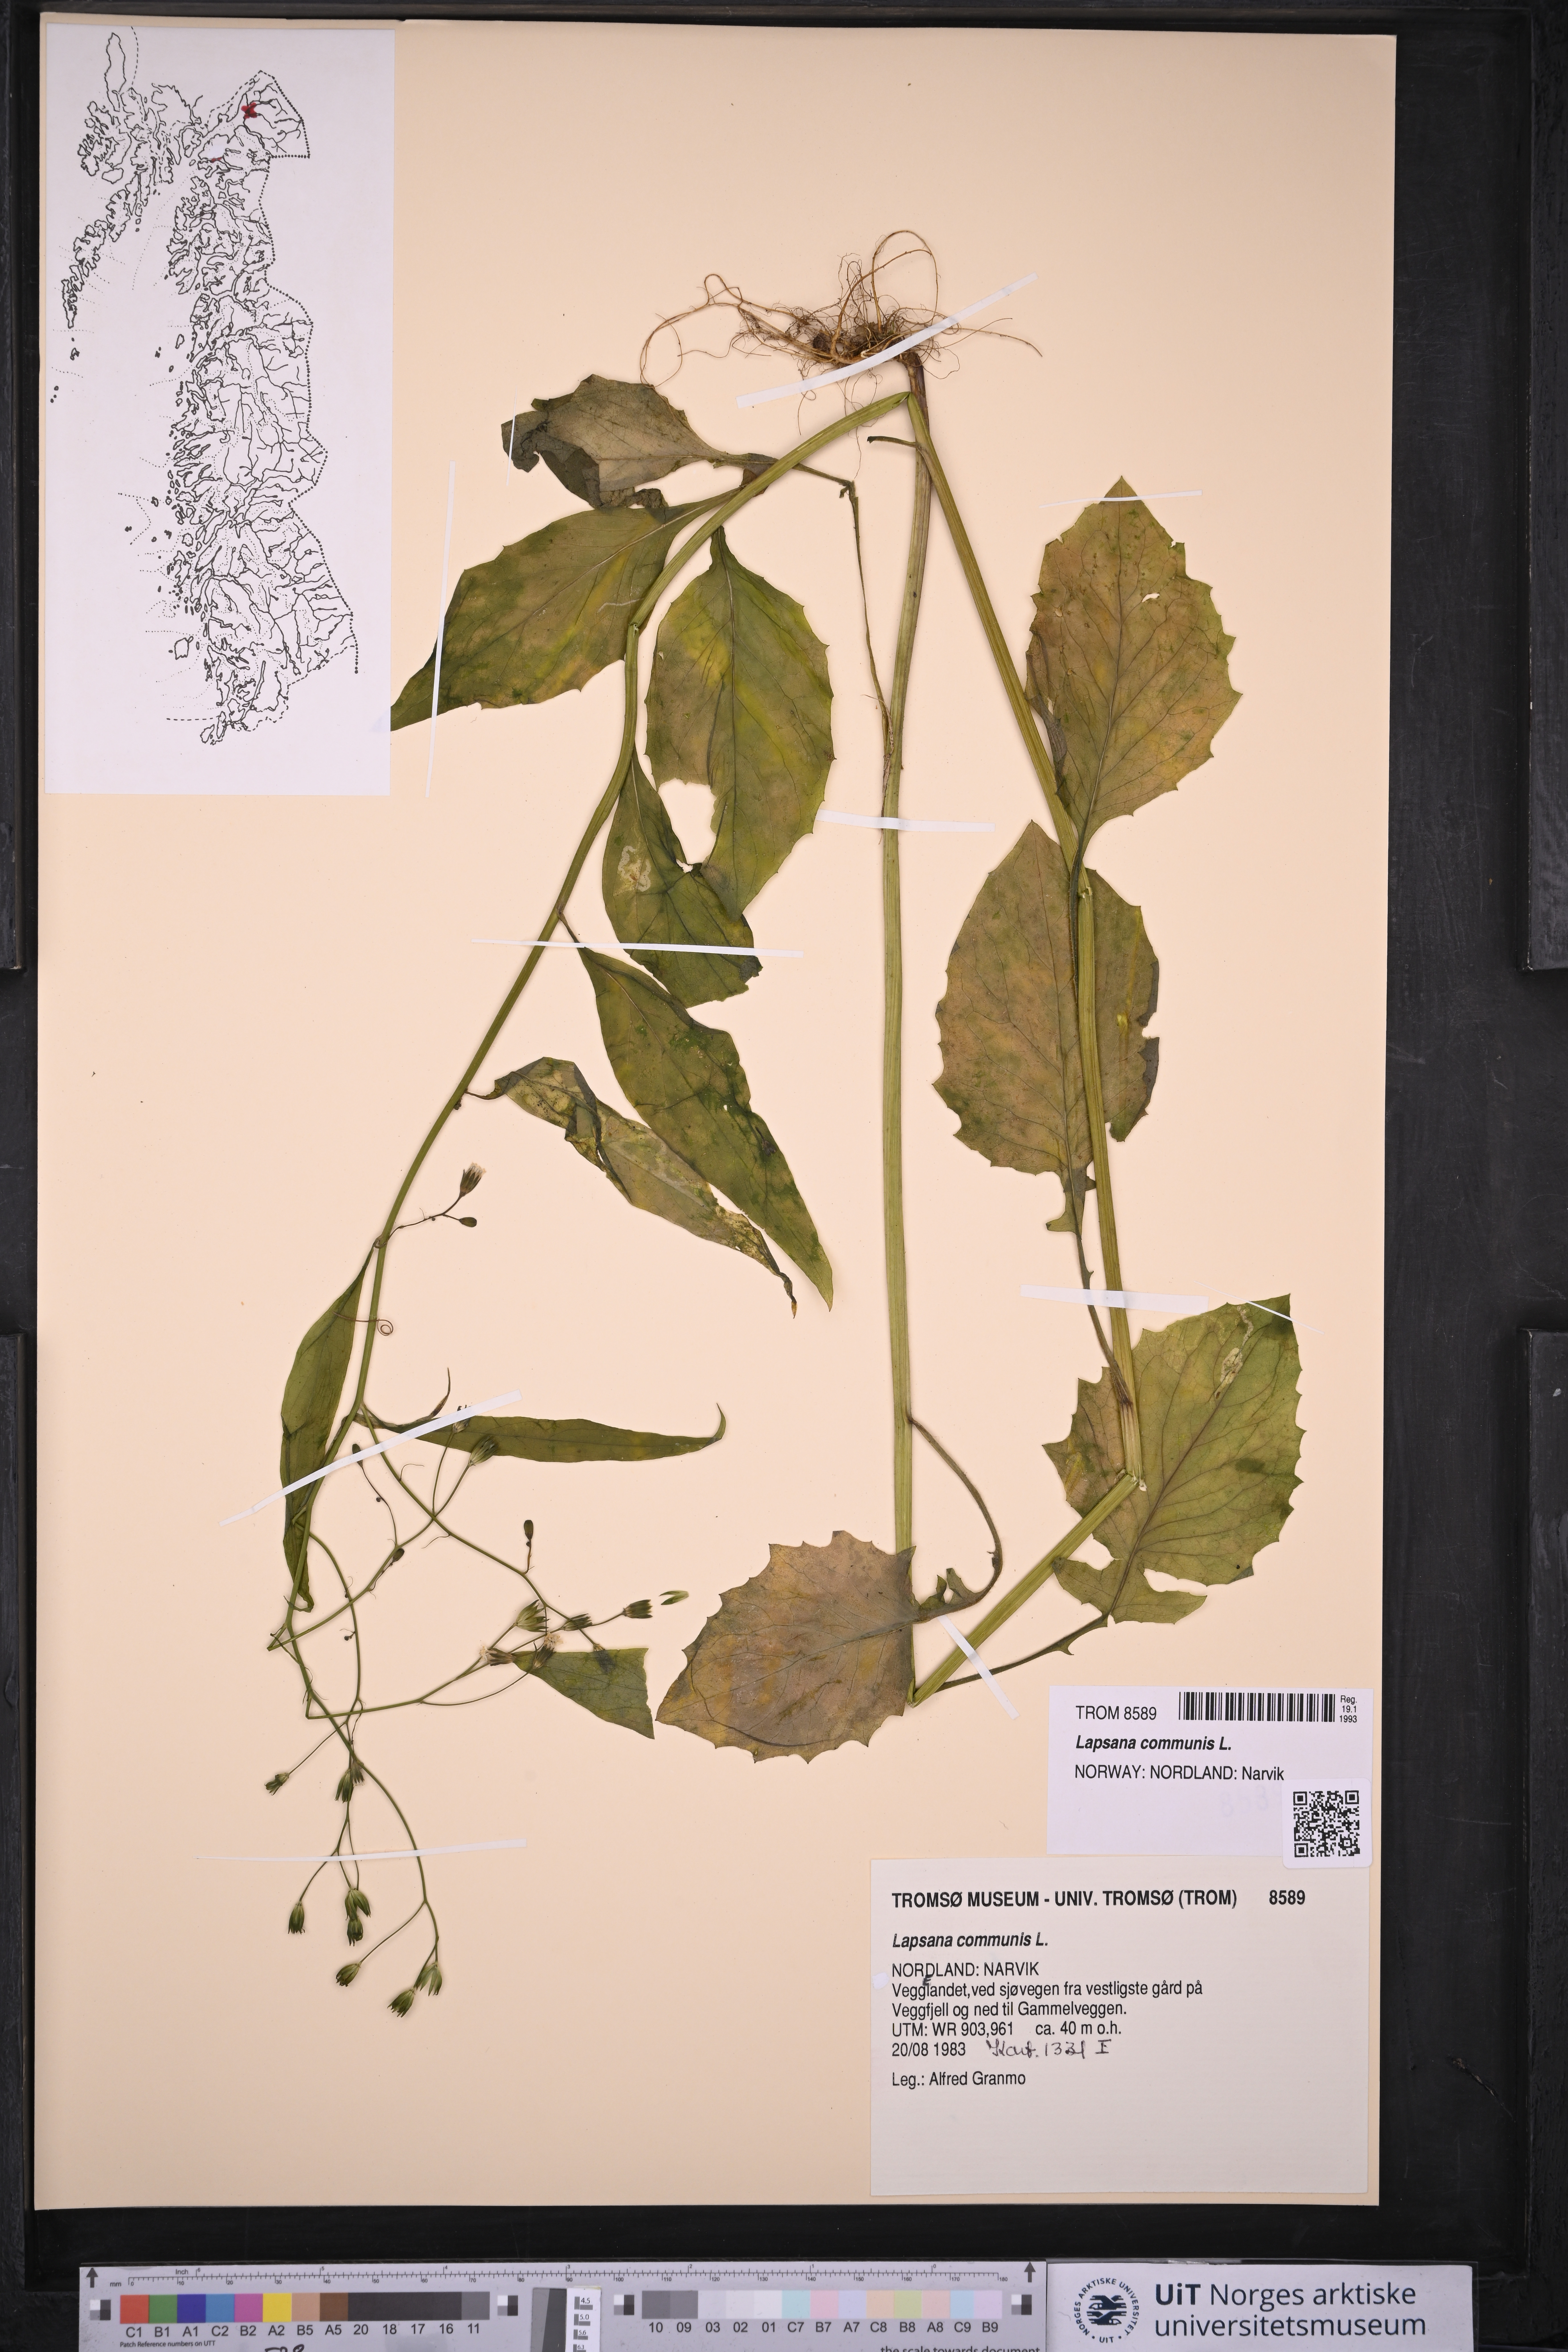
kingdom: Plantae
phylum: Tracheophyta
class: Magnoliopsida
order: Asterales
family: Asteraceae
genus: Lapsana
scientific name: Lapsana communis
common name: Nipplewort
